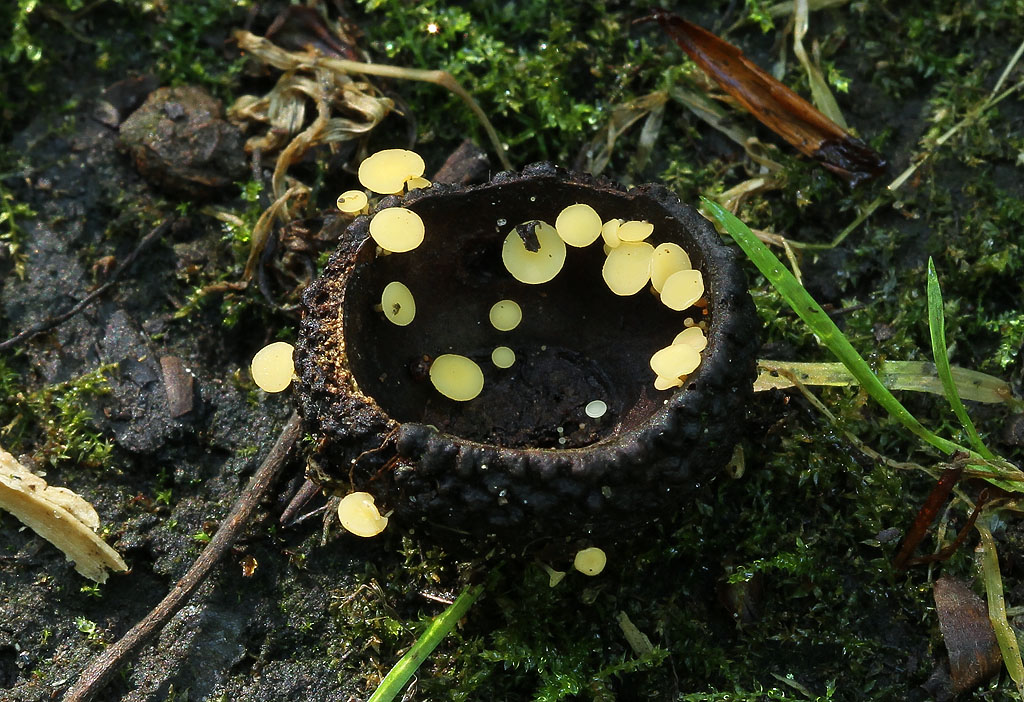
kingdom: Fungi
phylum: Ascomycota
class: Leotiomycetes
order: Helotiales
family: Helotiaceae
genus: Hymenoscyphus
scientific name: Hymenoscyphus fructigenus
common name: frugt-stilkskive
